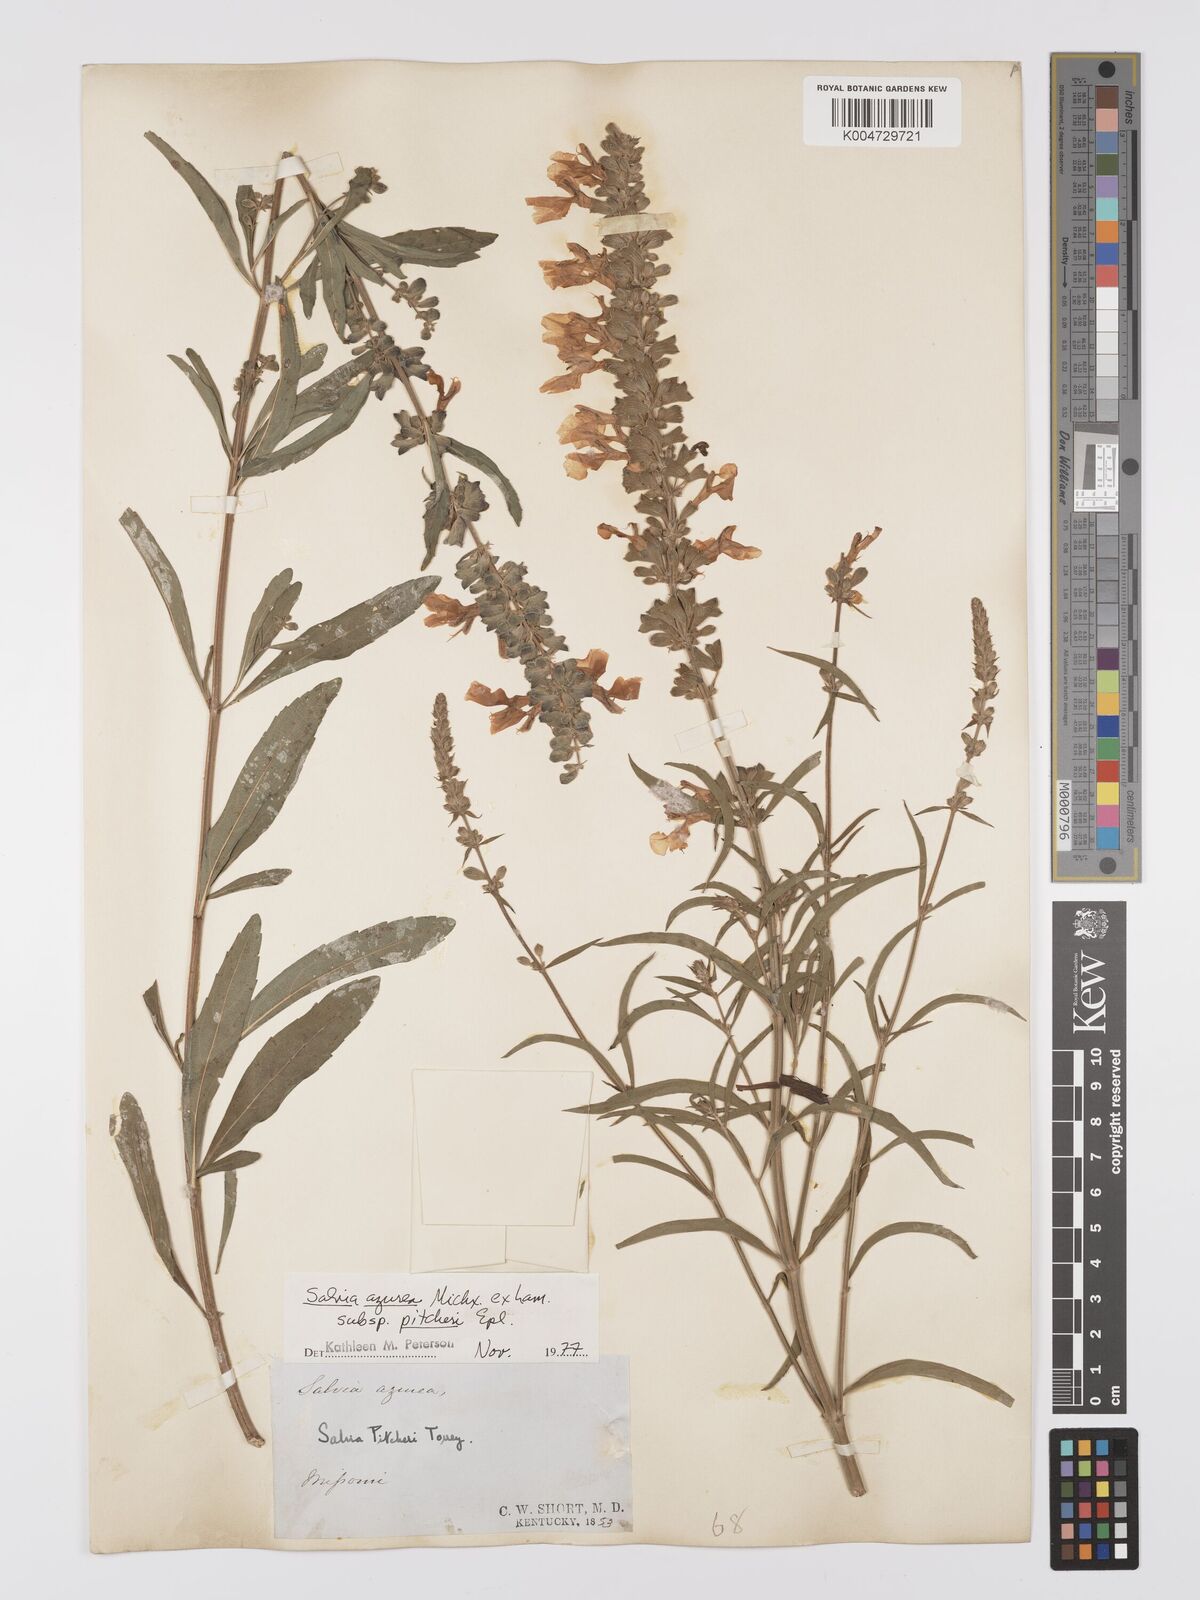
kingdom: Plantae
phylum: Tracheophyta
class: Magnoliopsida
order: Lamiales
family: Lamiaceae
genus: Salvia
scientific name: Salvia azurea
